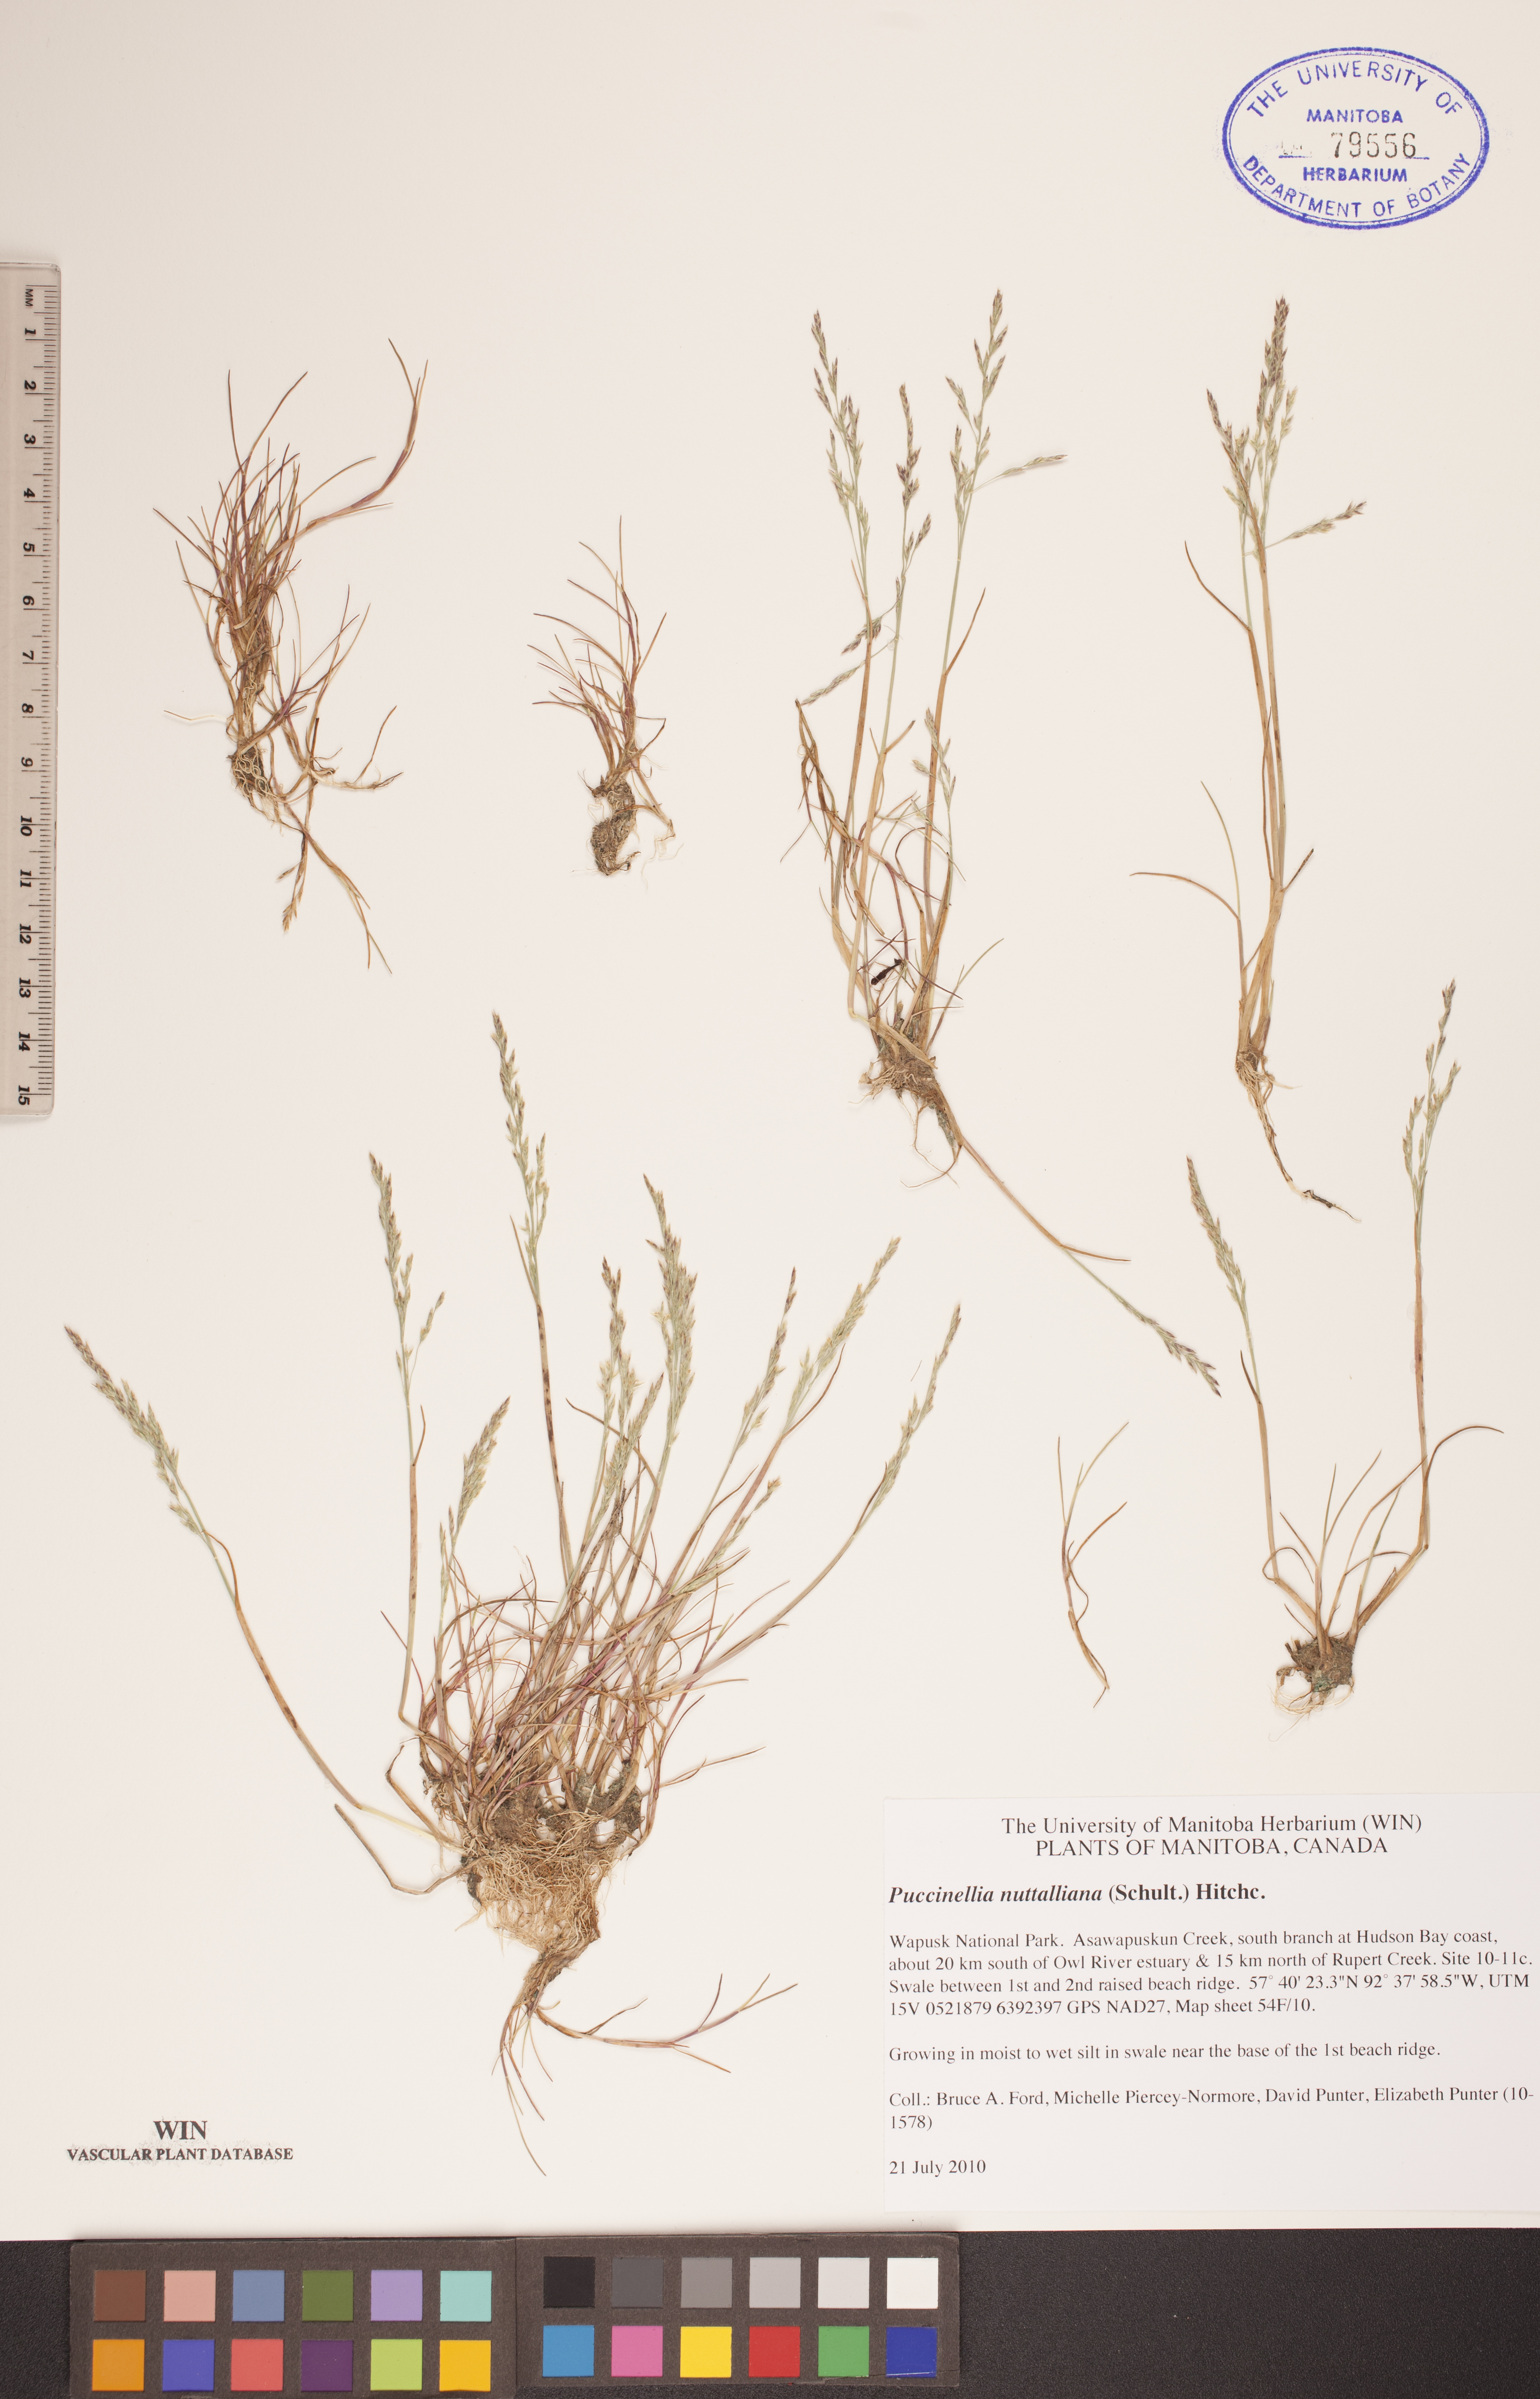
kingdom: Plantae
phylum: Tracheophyta
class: Liliopsida
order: Poales
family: Poaceae
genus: Puccinellia
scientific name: Puccinellia nuttalliana
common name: Nuttall's alkali grass
